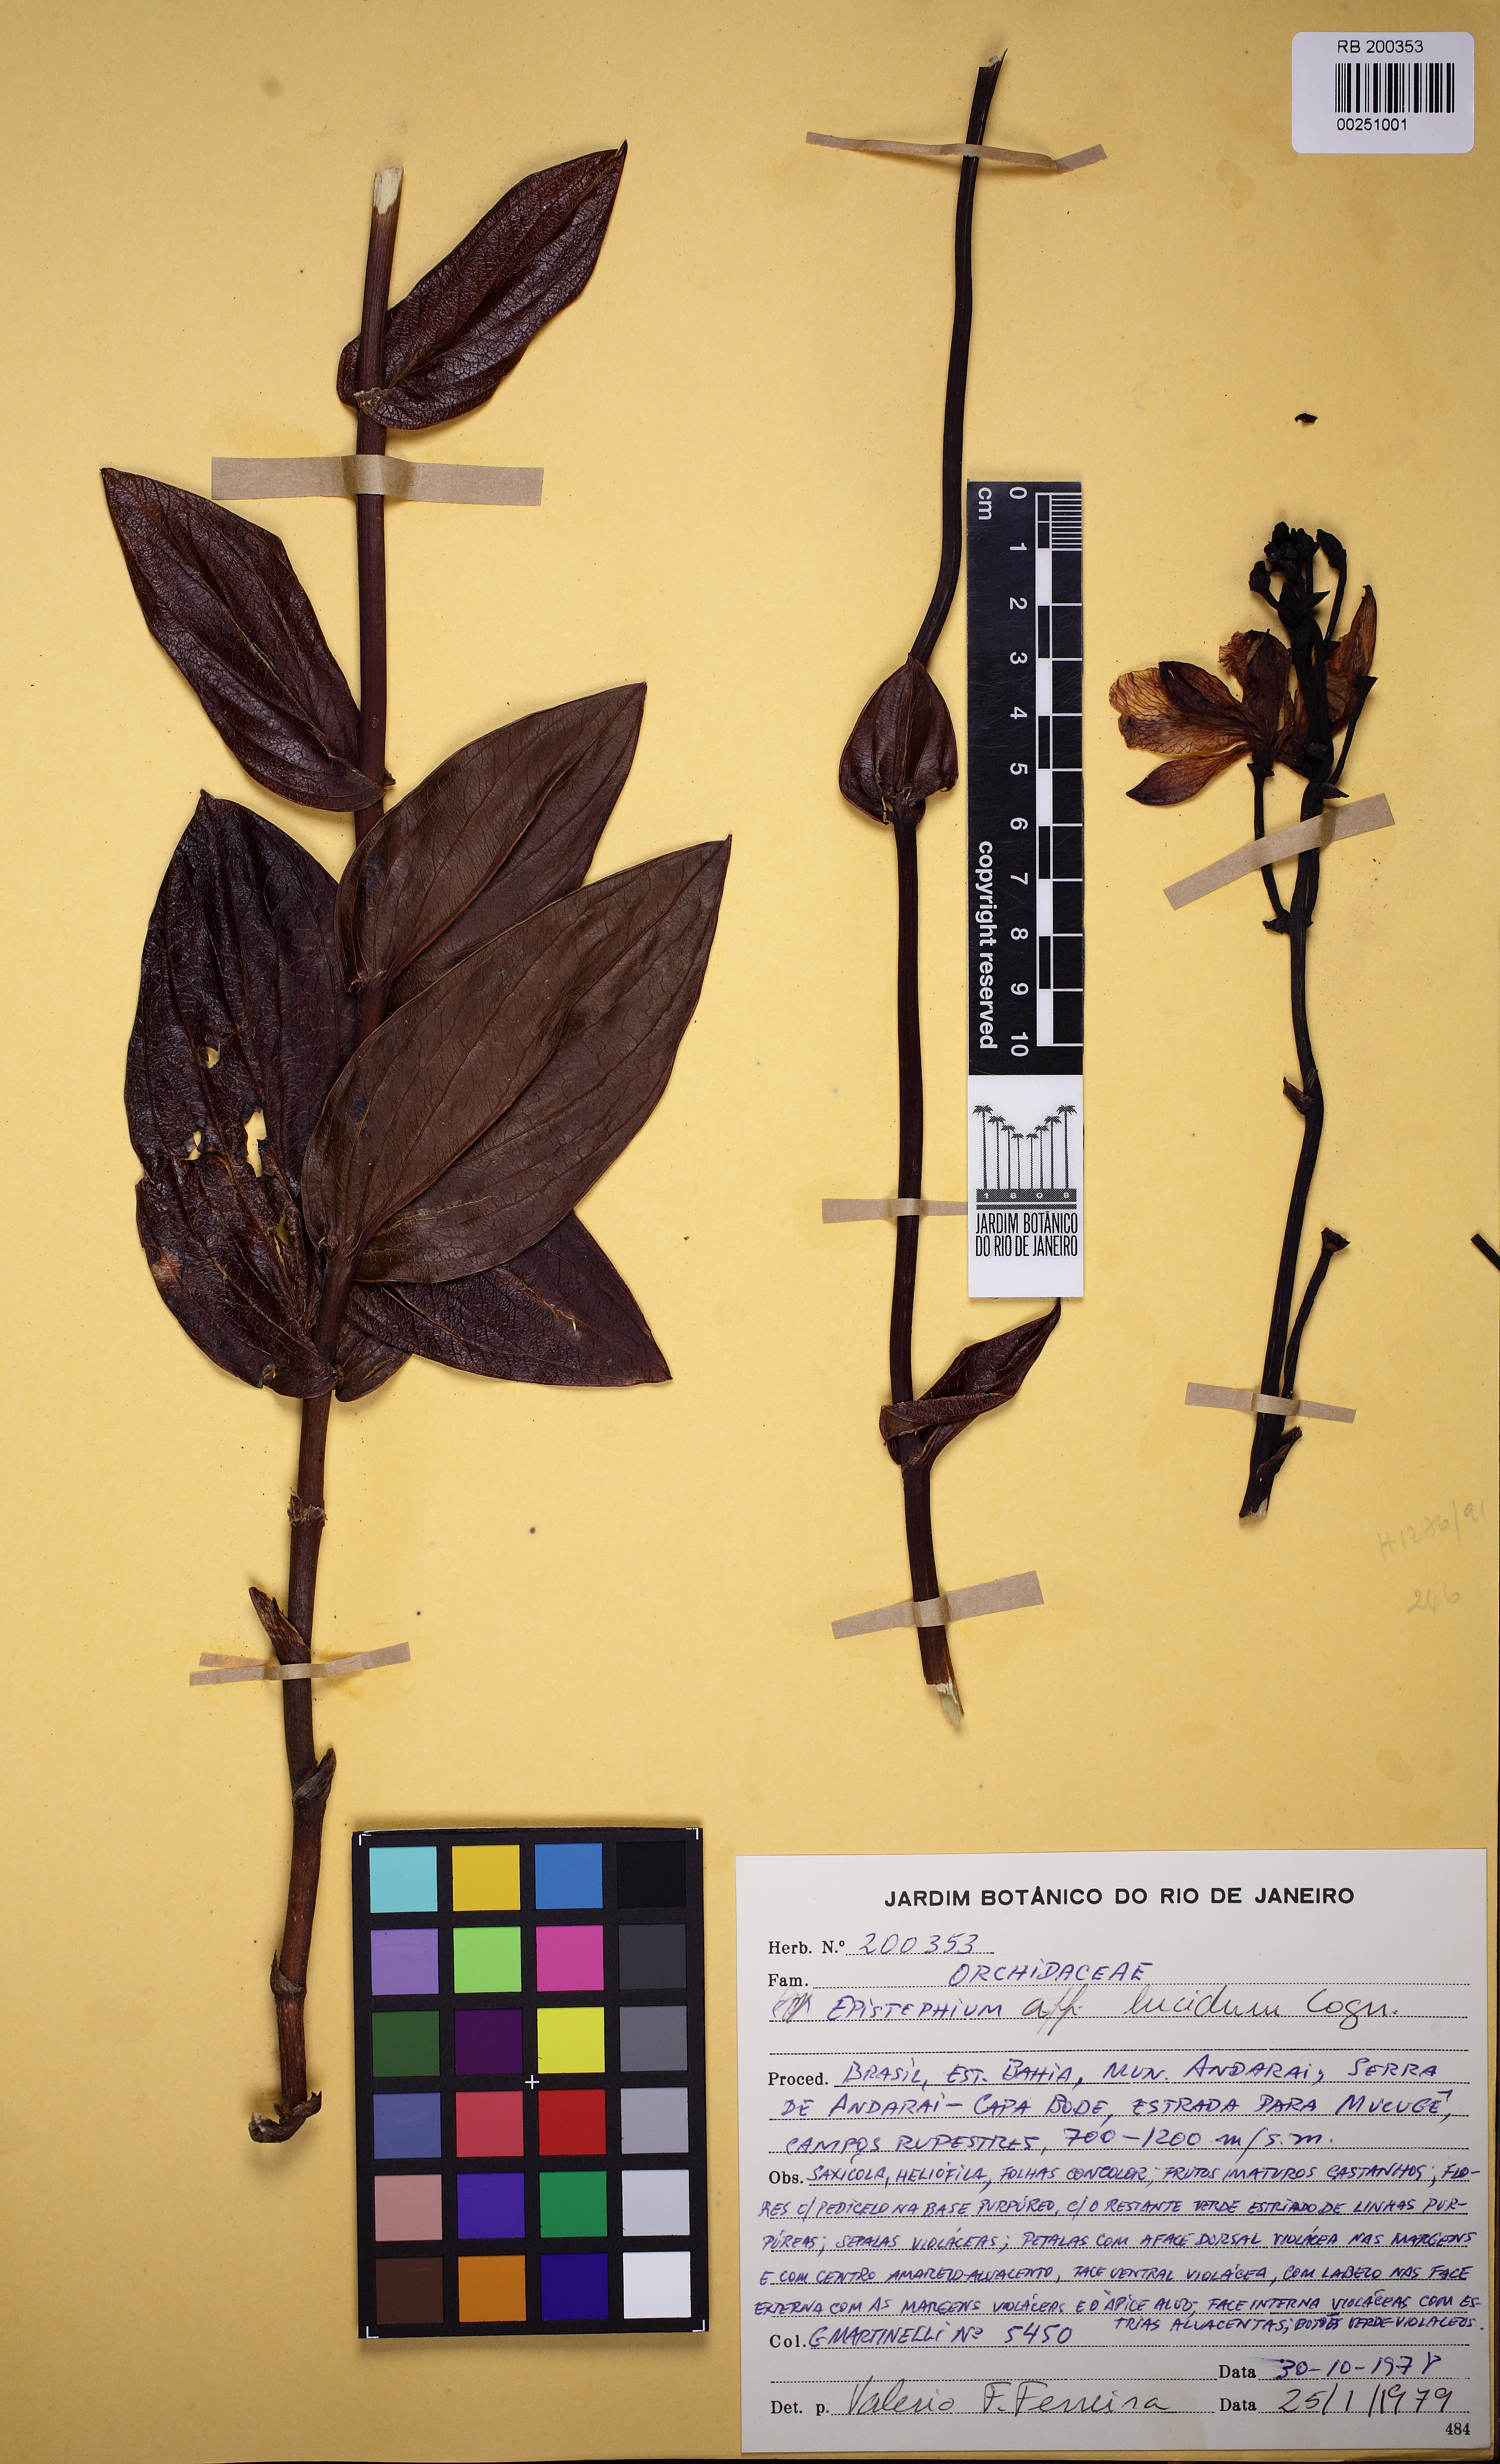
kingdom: Plantae
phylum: Tracheophyta
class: Liliopsida
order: Asparagales
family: Orchidaceae
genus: Epistephium
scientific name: Epistephium williamsii
